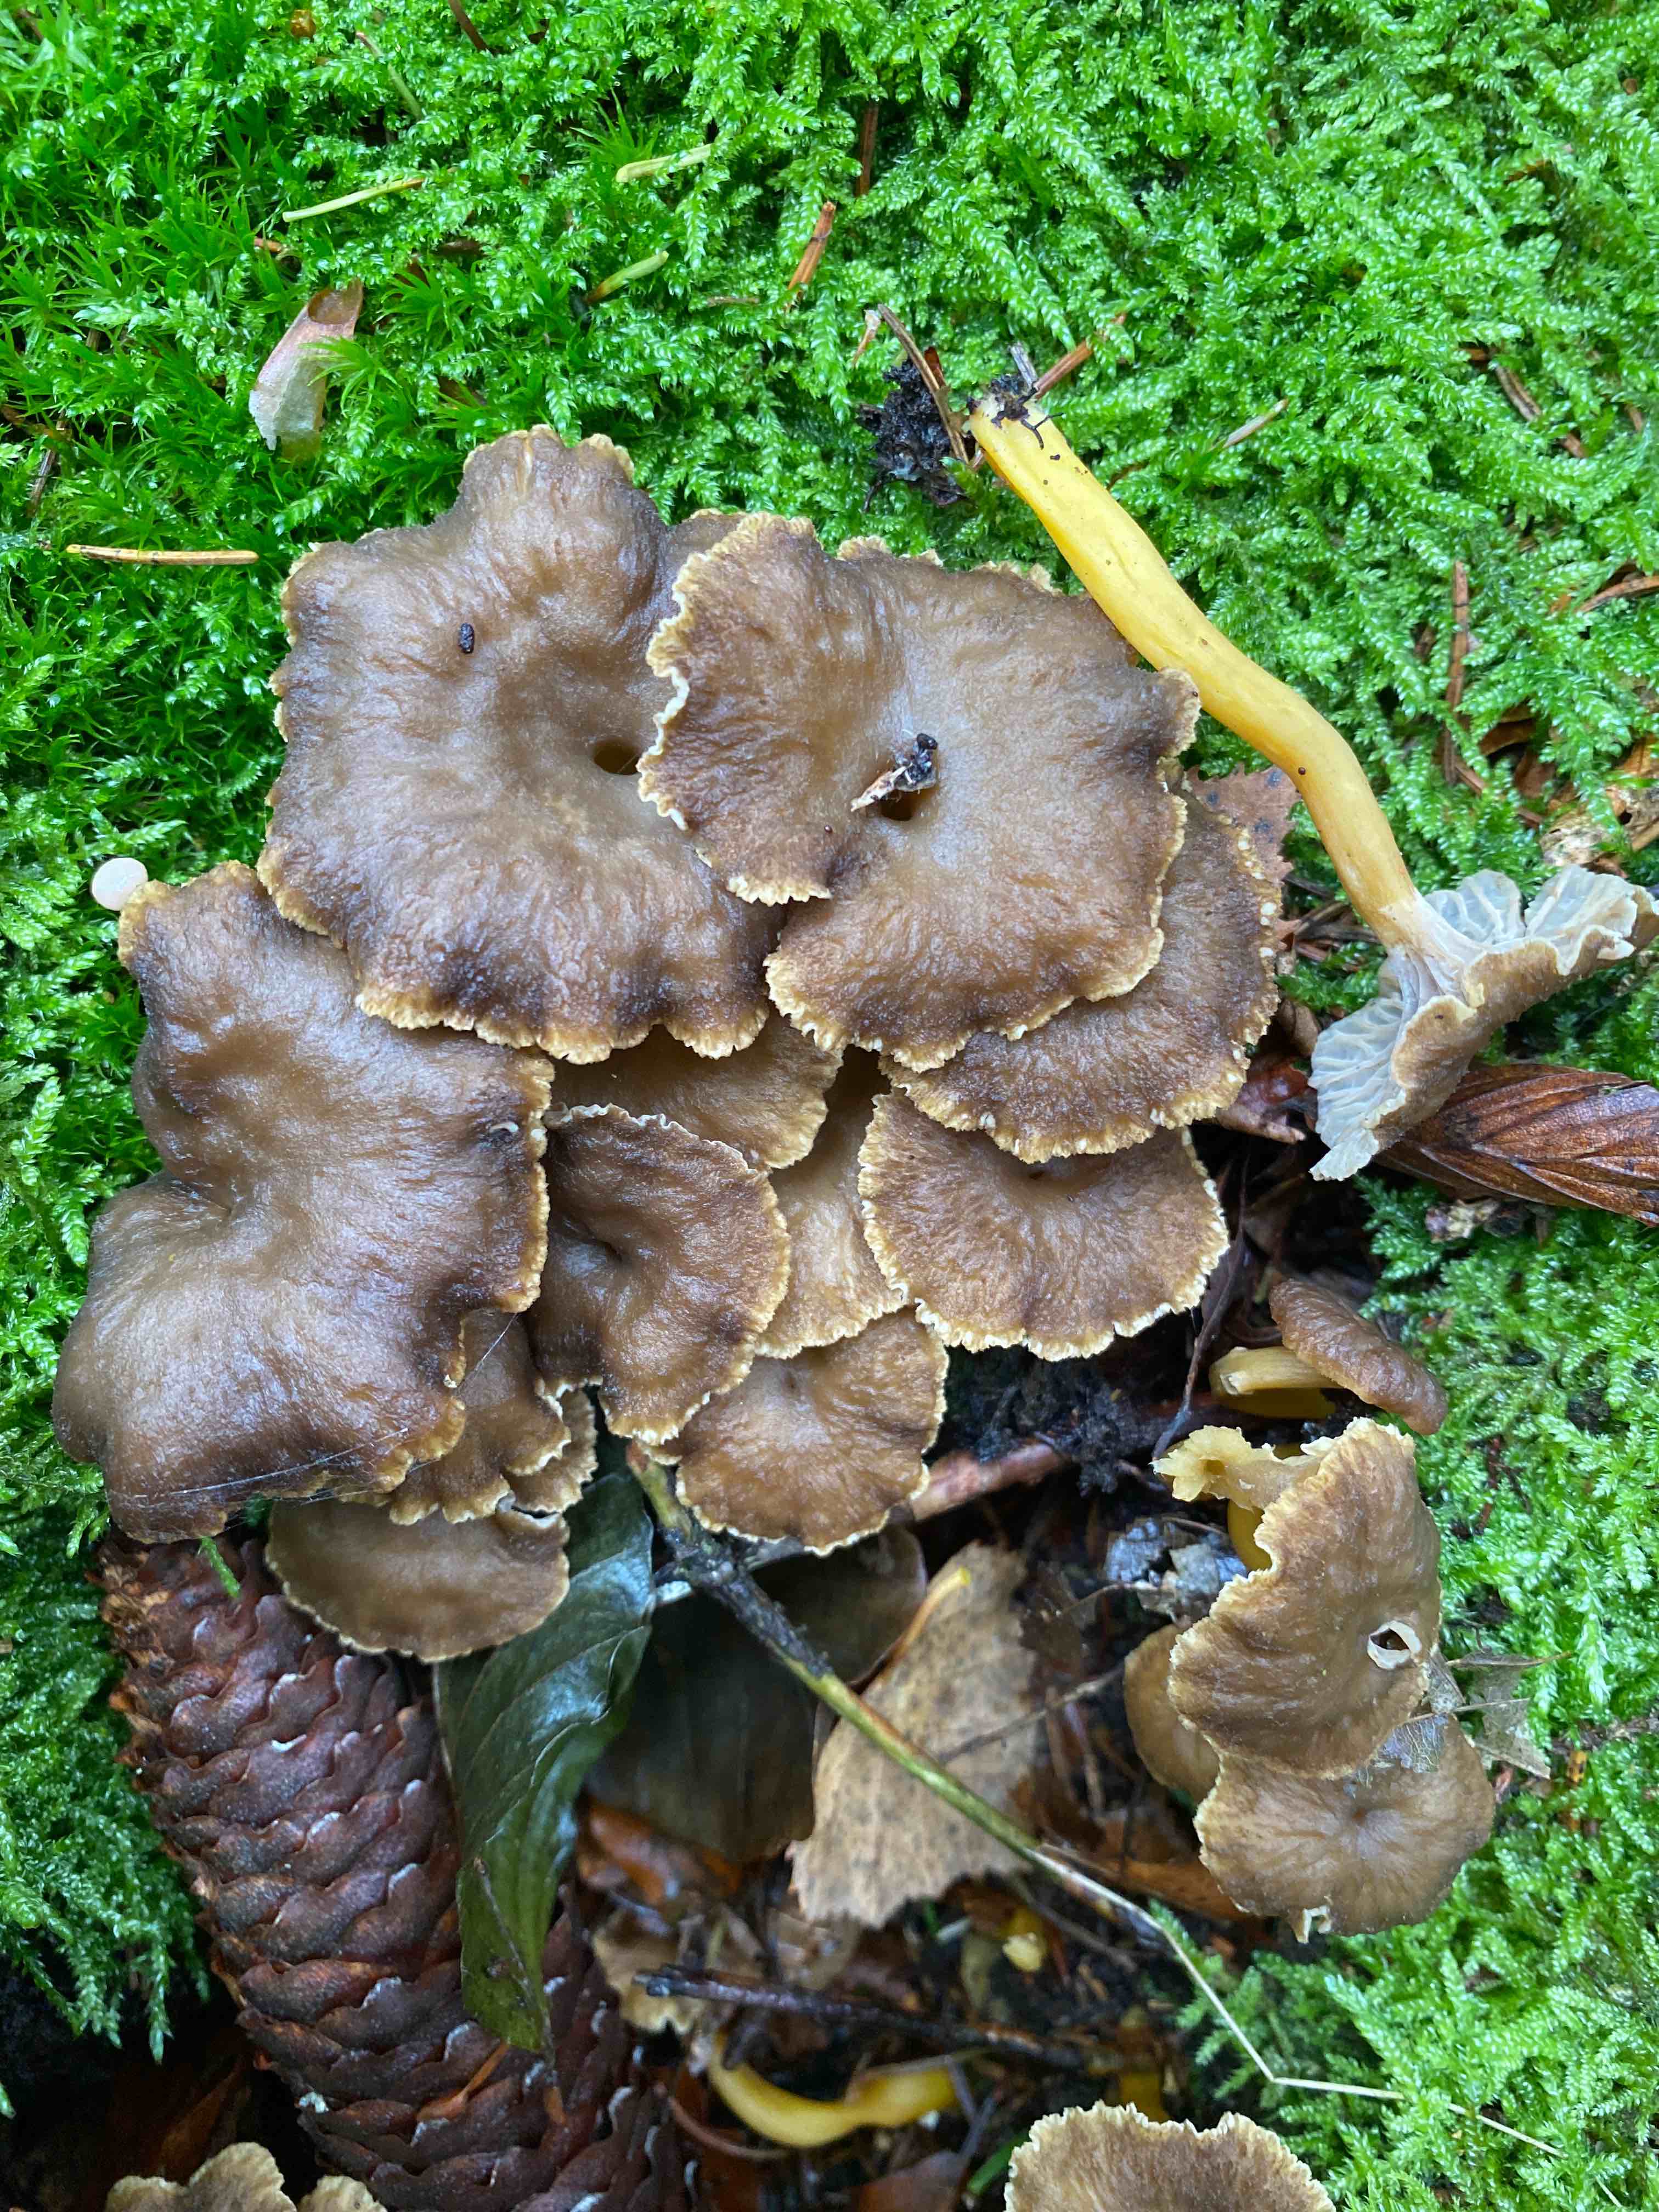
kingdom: Fungi
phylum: Basidiomycota
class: Agaricomycetes
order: Cantharellales
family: Hydnaceae
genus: Craterellus
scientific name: Craterellus tubaeformis
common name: tragt-kantarel
